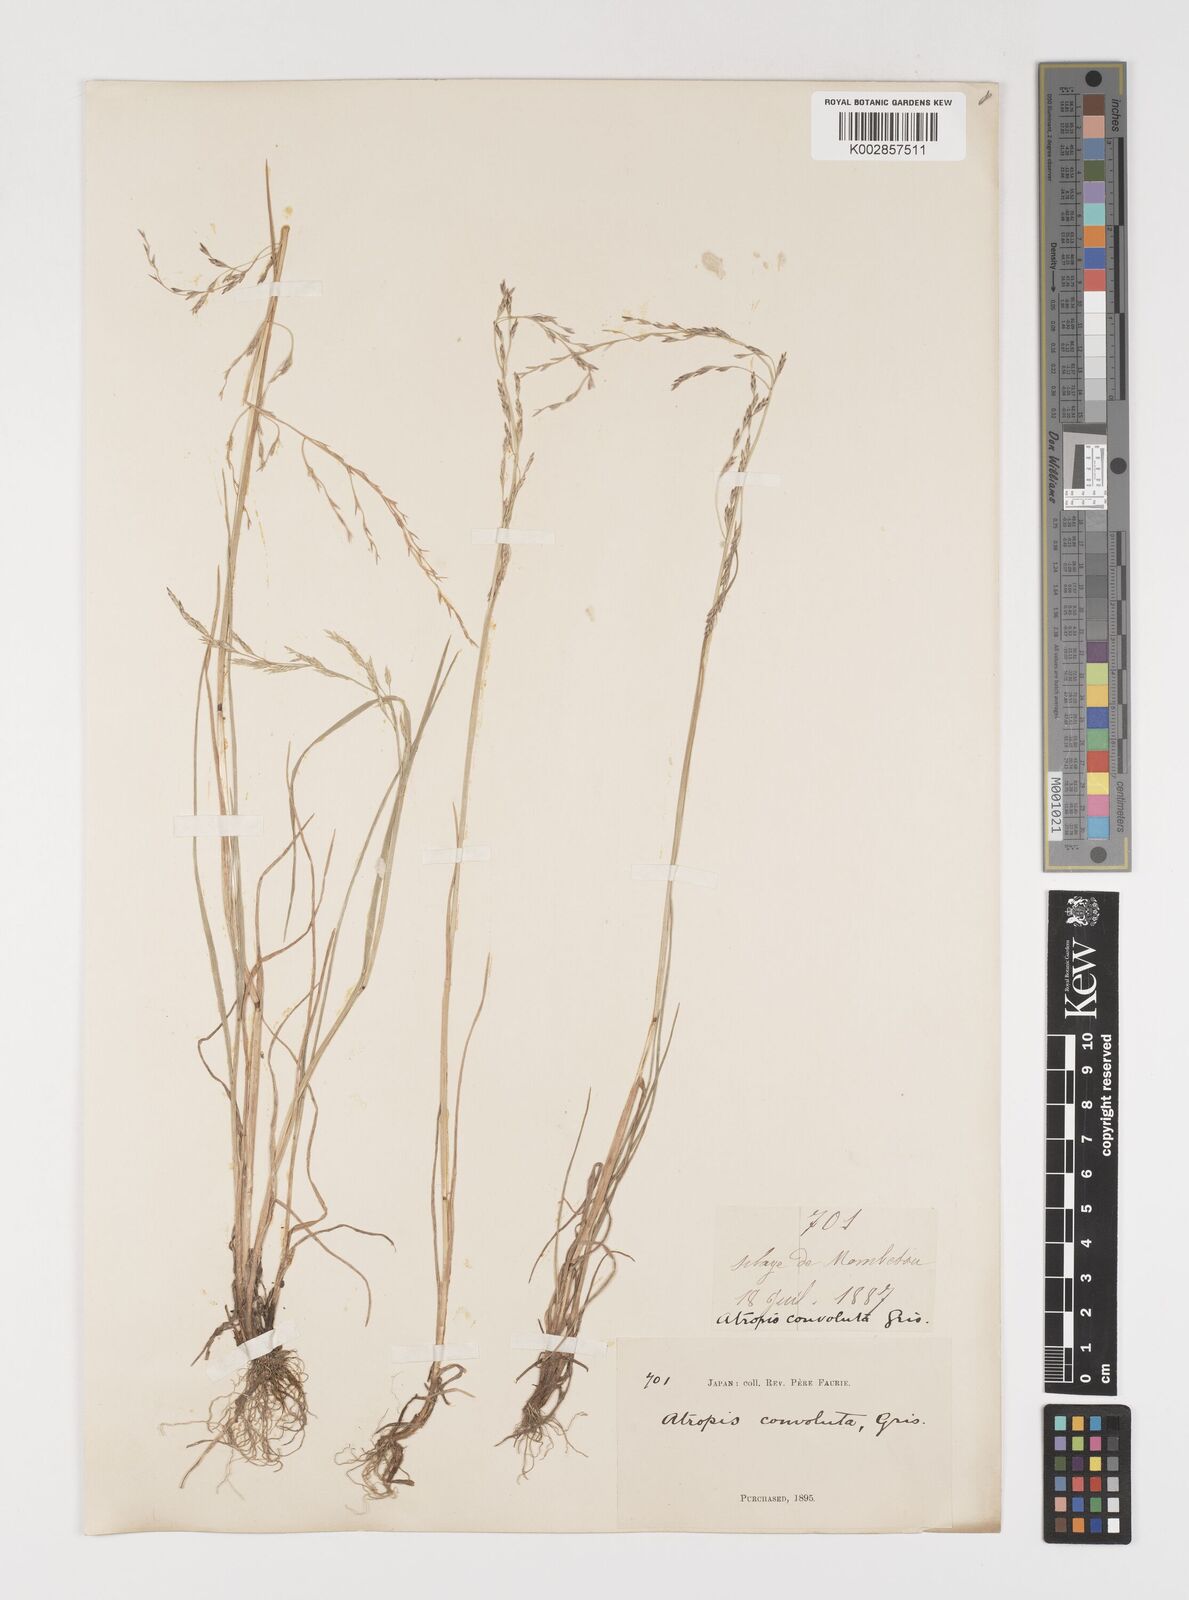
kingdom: Plantae
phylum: Tracheophyta
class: Liliopsida
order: Poales
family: Poaceae
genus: Puccinellia
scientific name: Puccinellia
